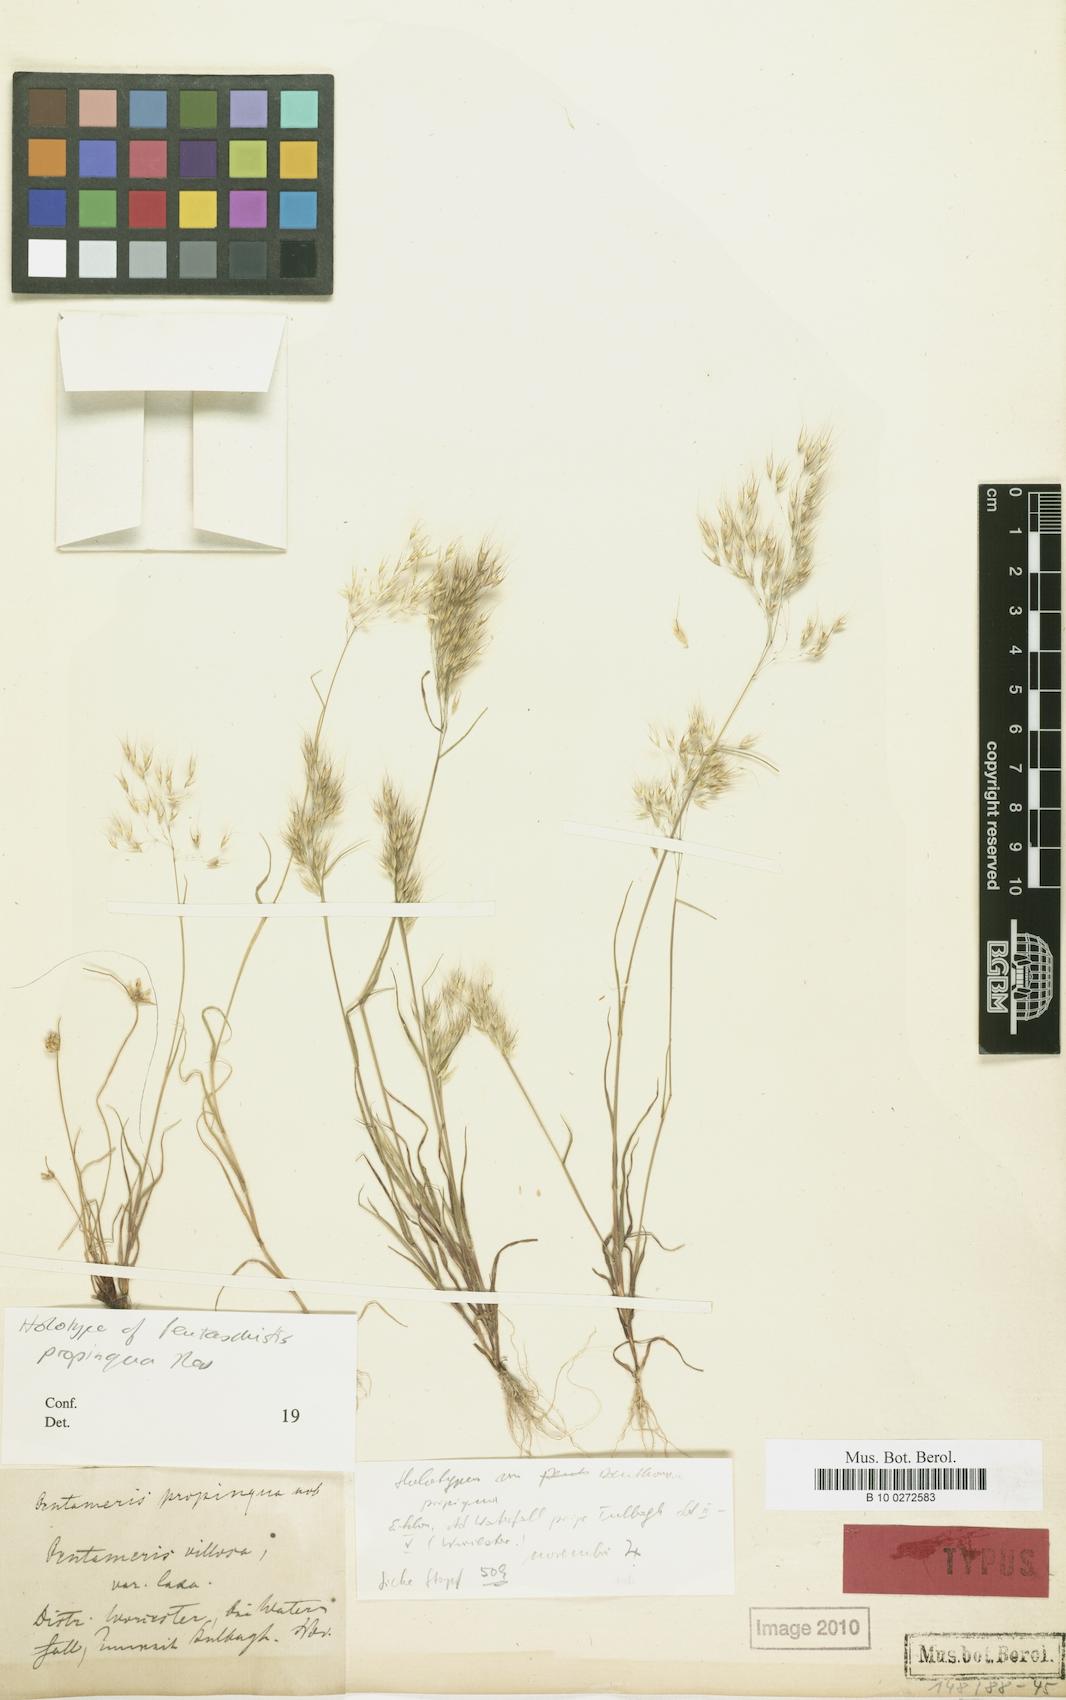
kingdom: Plantae
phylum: Tracheophyta
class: Liliopsida
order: Poales
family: Poaceae
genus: Pentameris
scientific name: Pentameris patula
